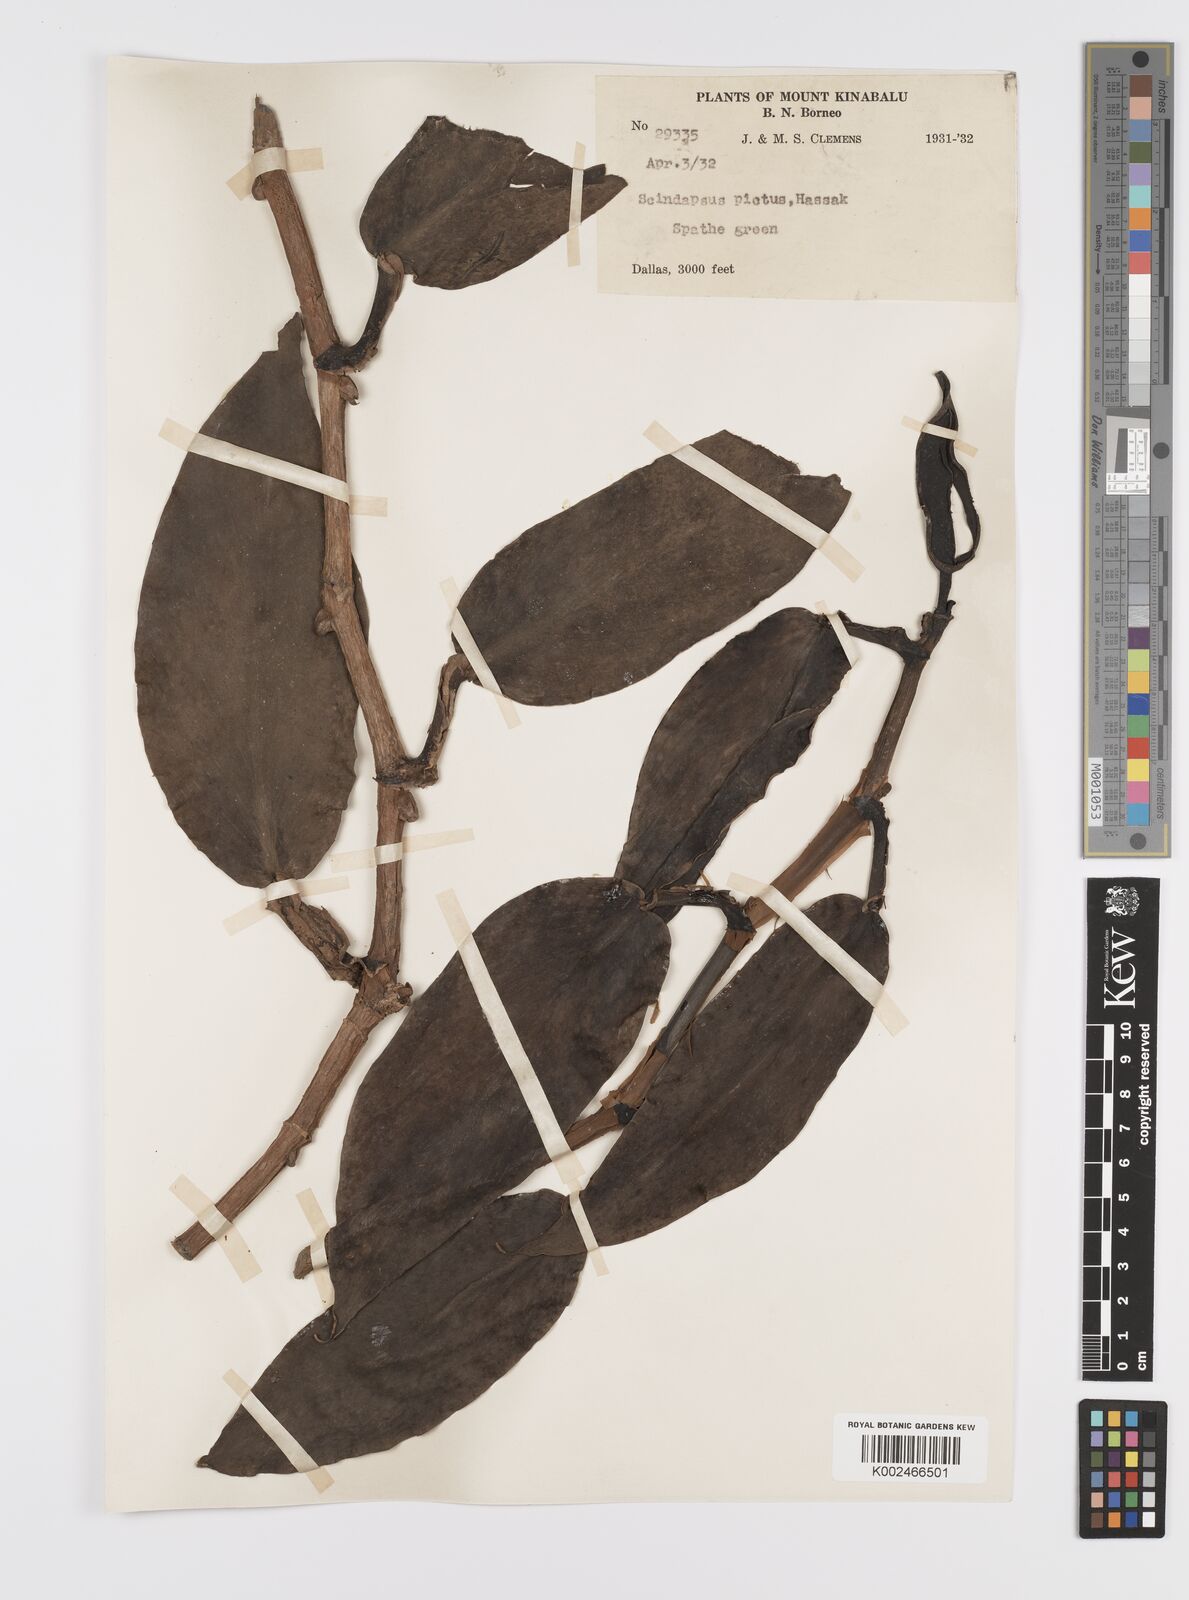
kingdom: Plantae
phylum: Tracheophyta
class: Liliopsida
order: Alismatales
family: Araceae
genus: Scindapsus
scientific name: Scindapsus pictus
